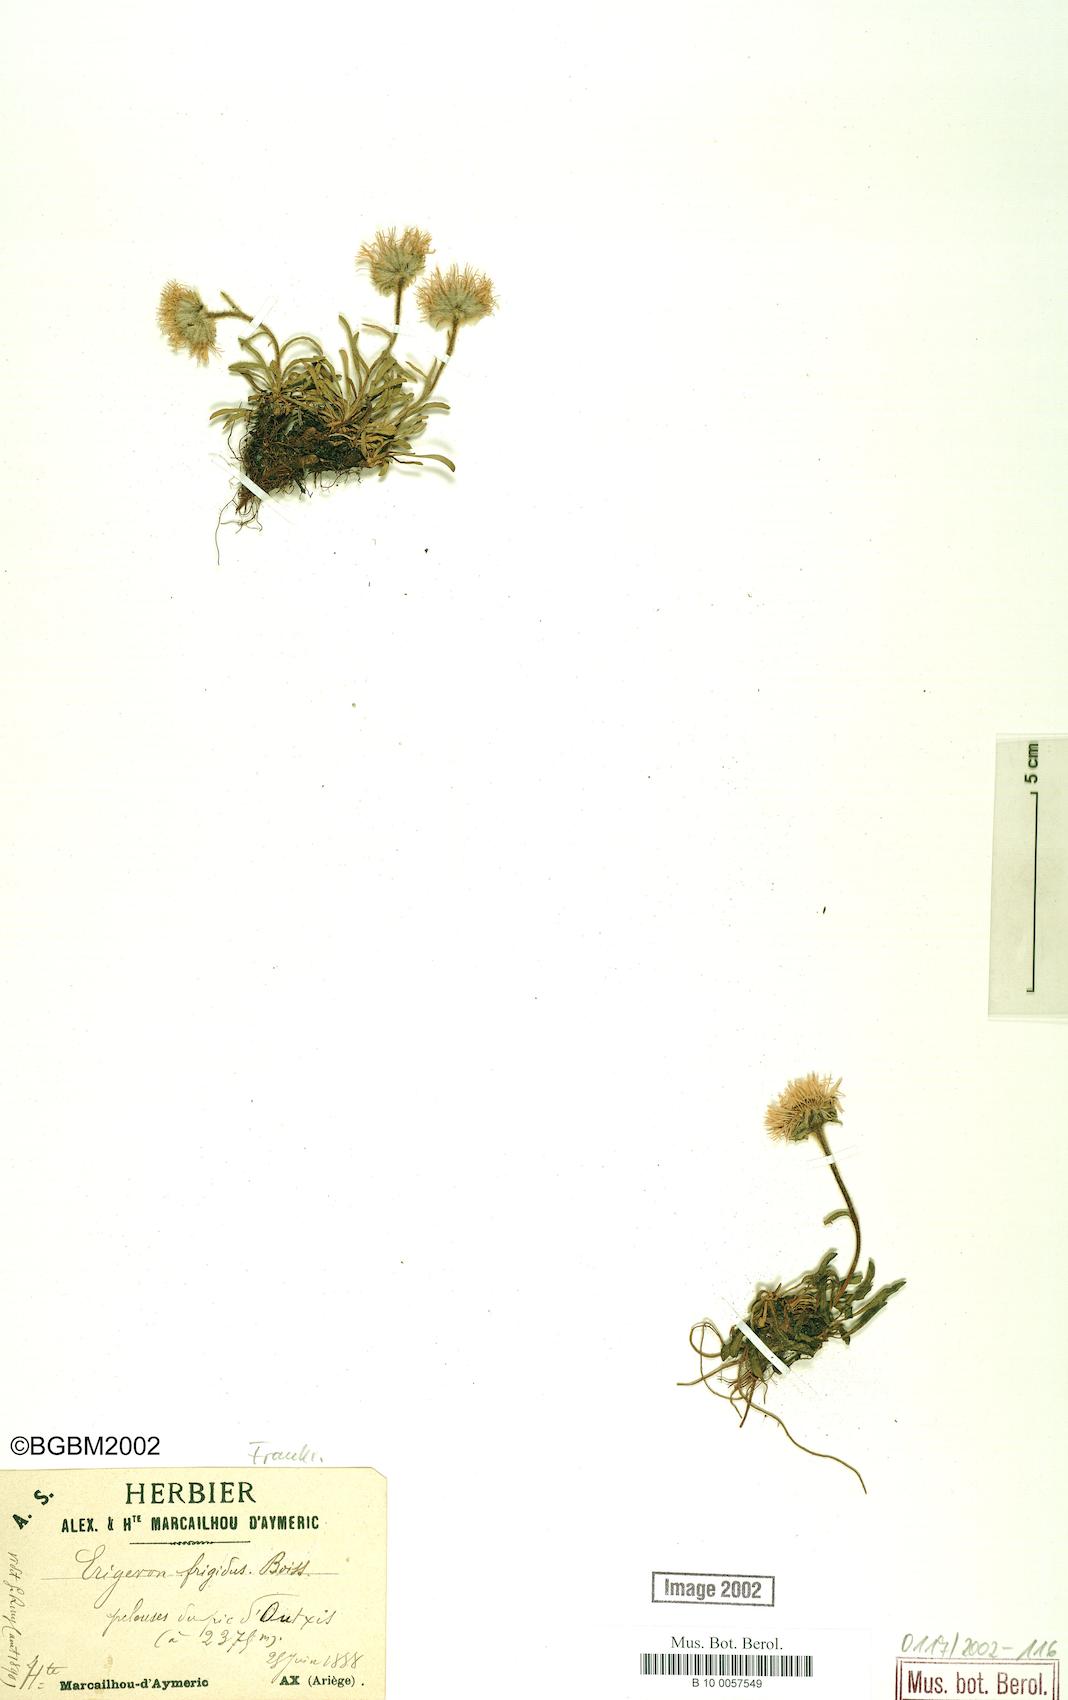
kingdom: Plantae
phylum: Tracheophyta
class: Magnoliopsida
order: Asterales
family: Asteraceae
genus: Erigeron
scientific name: Erigeron aragonensis
